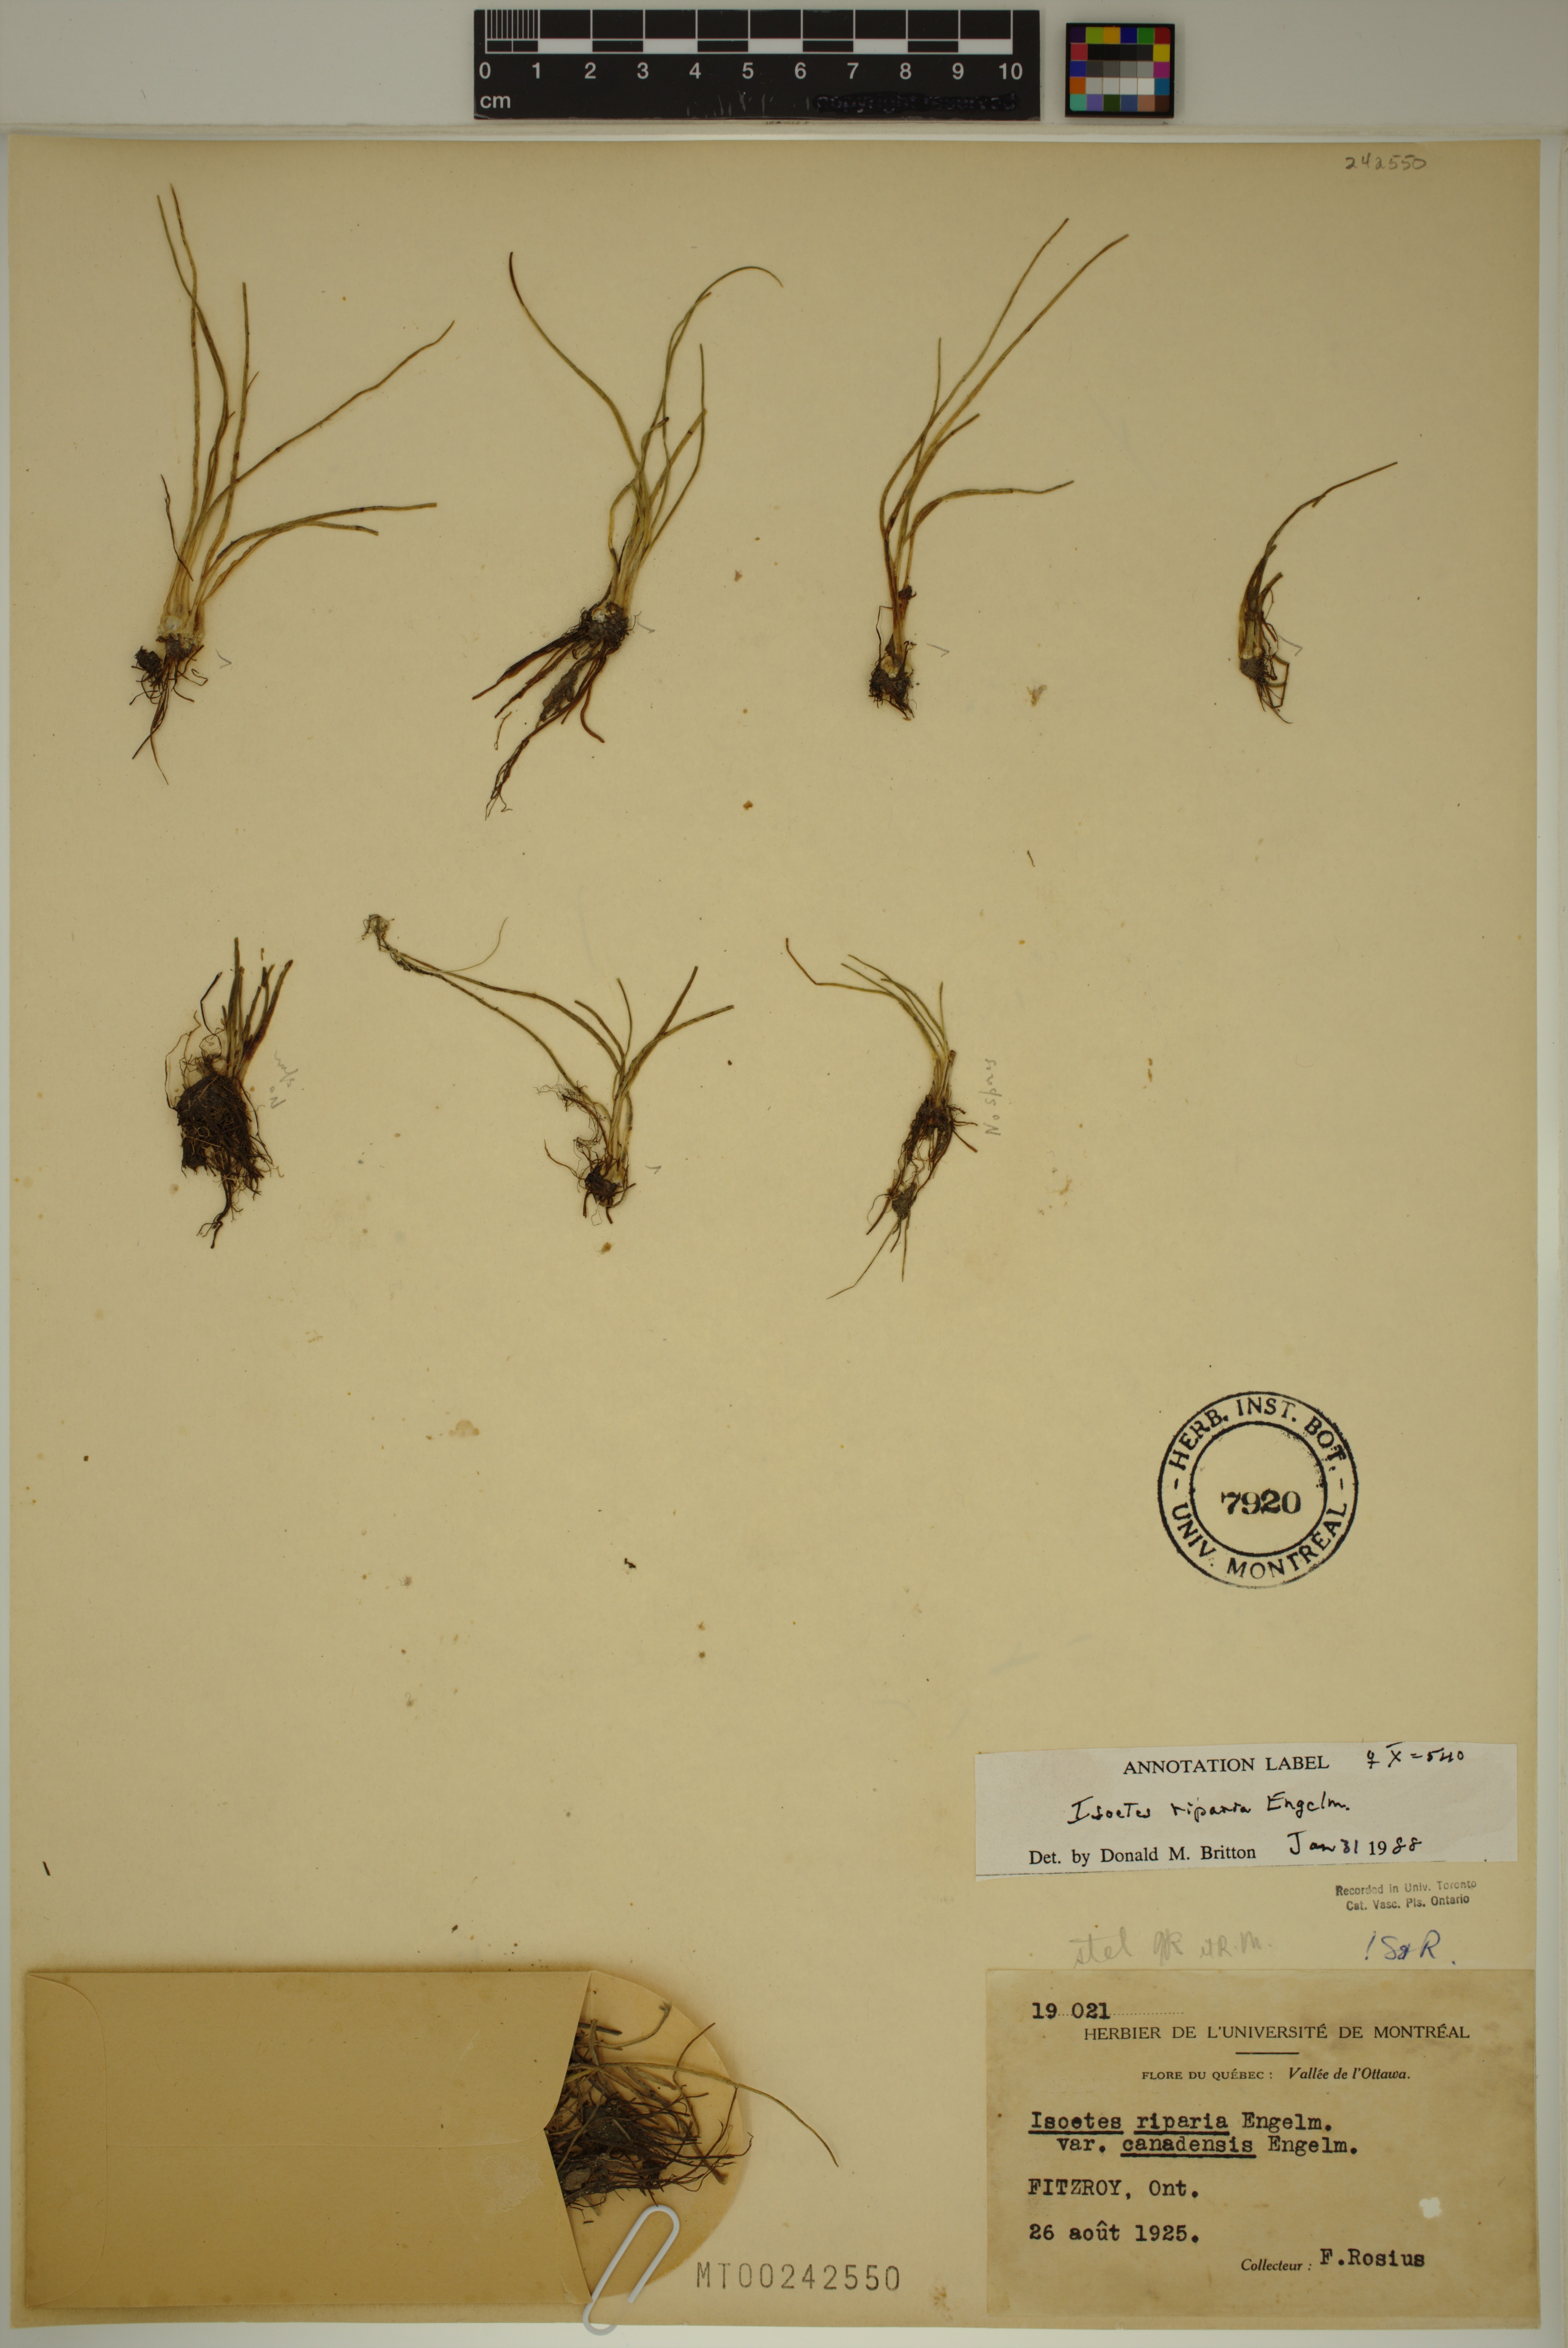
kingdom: Plantae
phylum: Tracheophyta
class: Lycopodiopsida
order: Isoetales
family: Isoetaceae
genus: Isoetes
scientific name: Isoetes septentrionalis
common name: Northern quillwort
